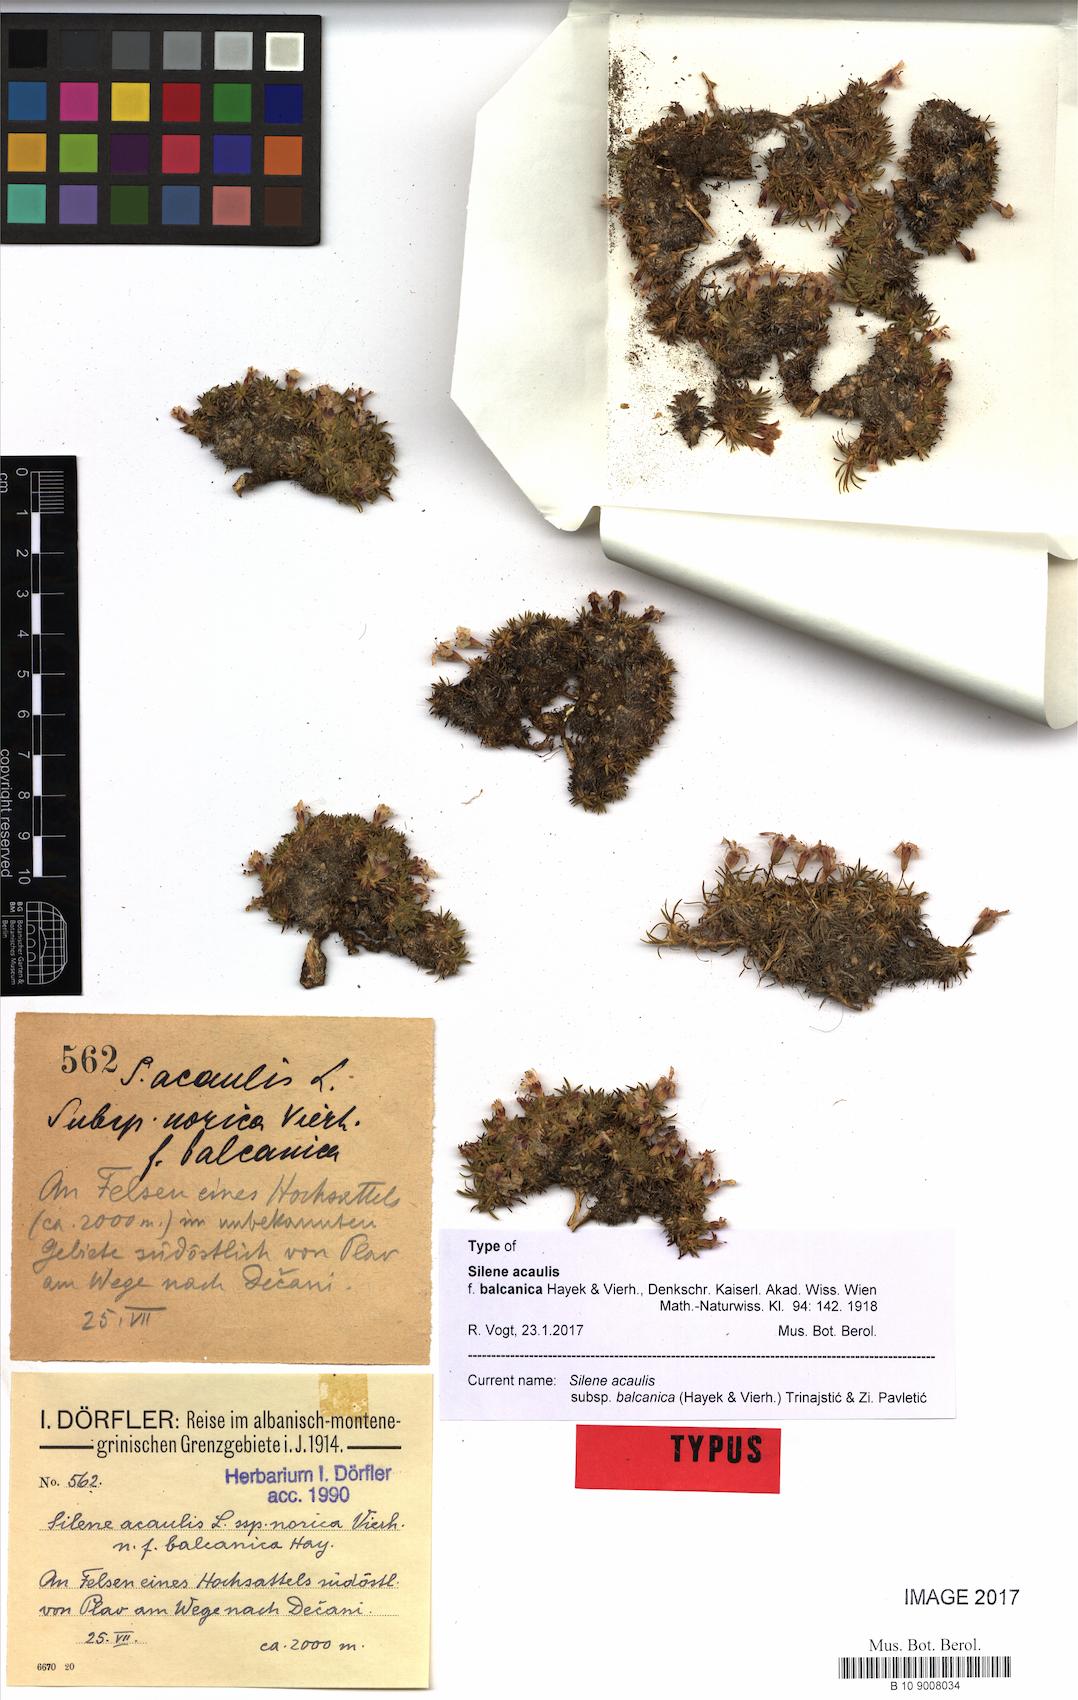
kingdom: Plantae
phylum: Tracheophyta
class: Magnoliopsida
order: Caryophyllales
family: Caryophyllaceae
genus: Silene
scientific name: Silene acaulis
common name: Moss campion
